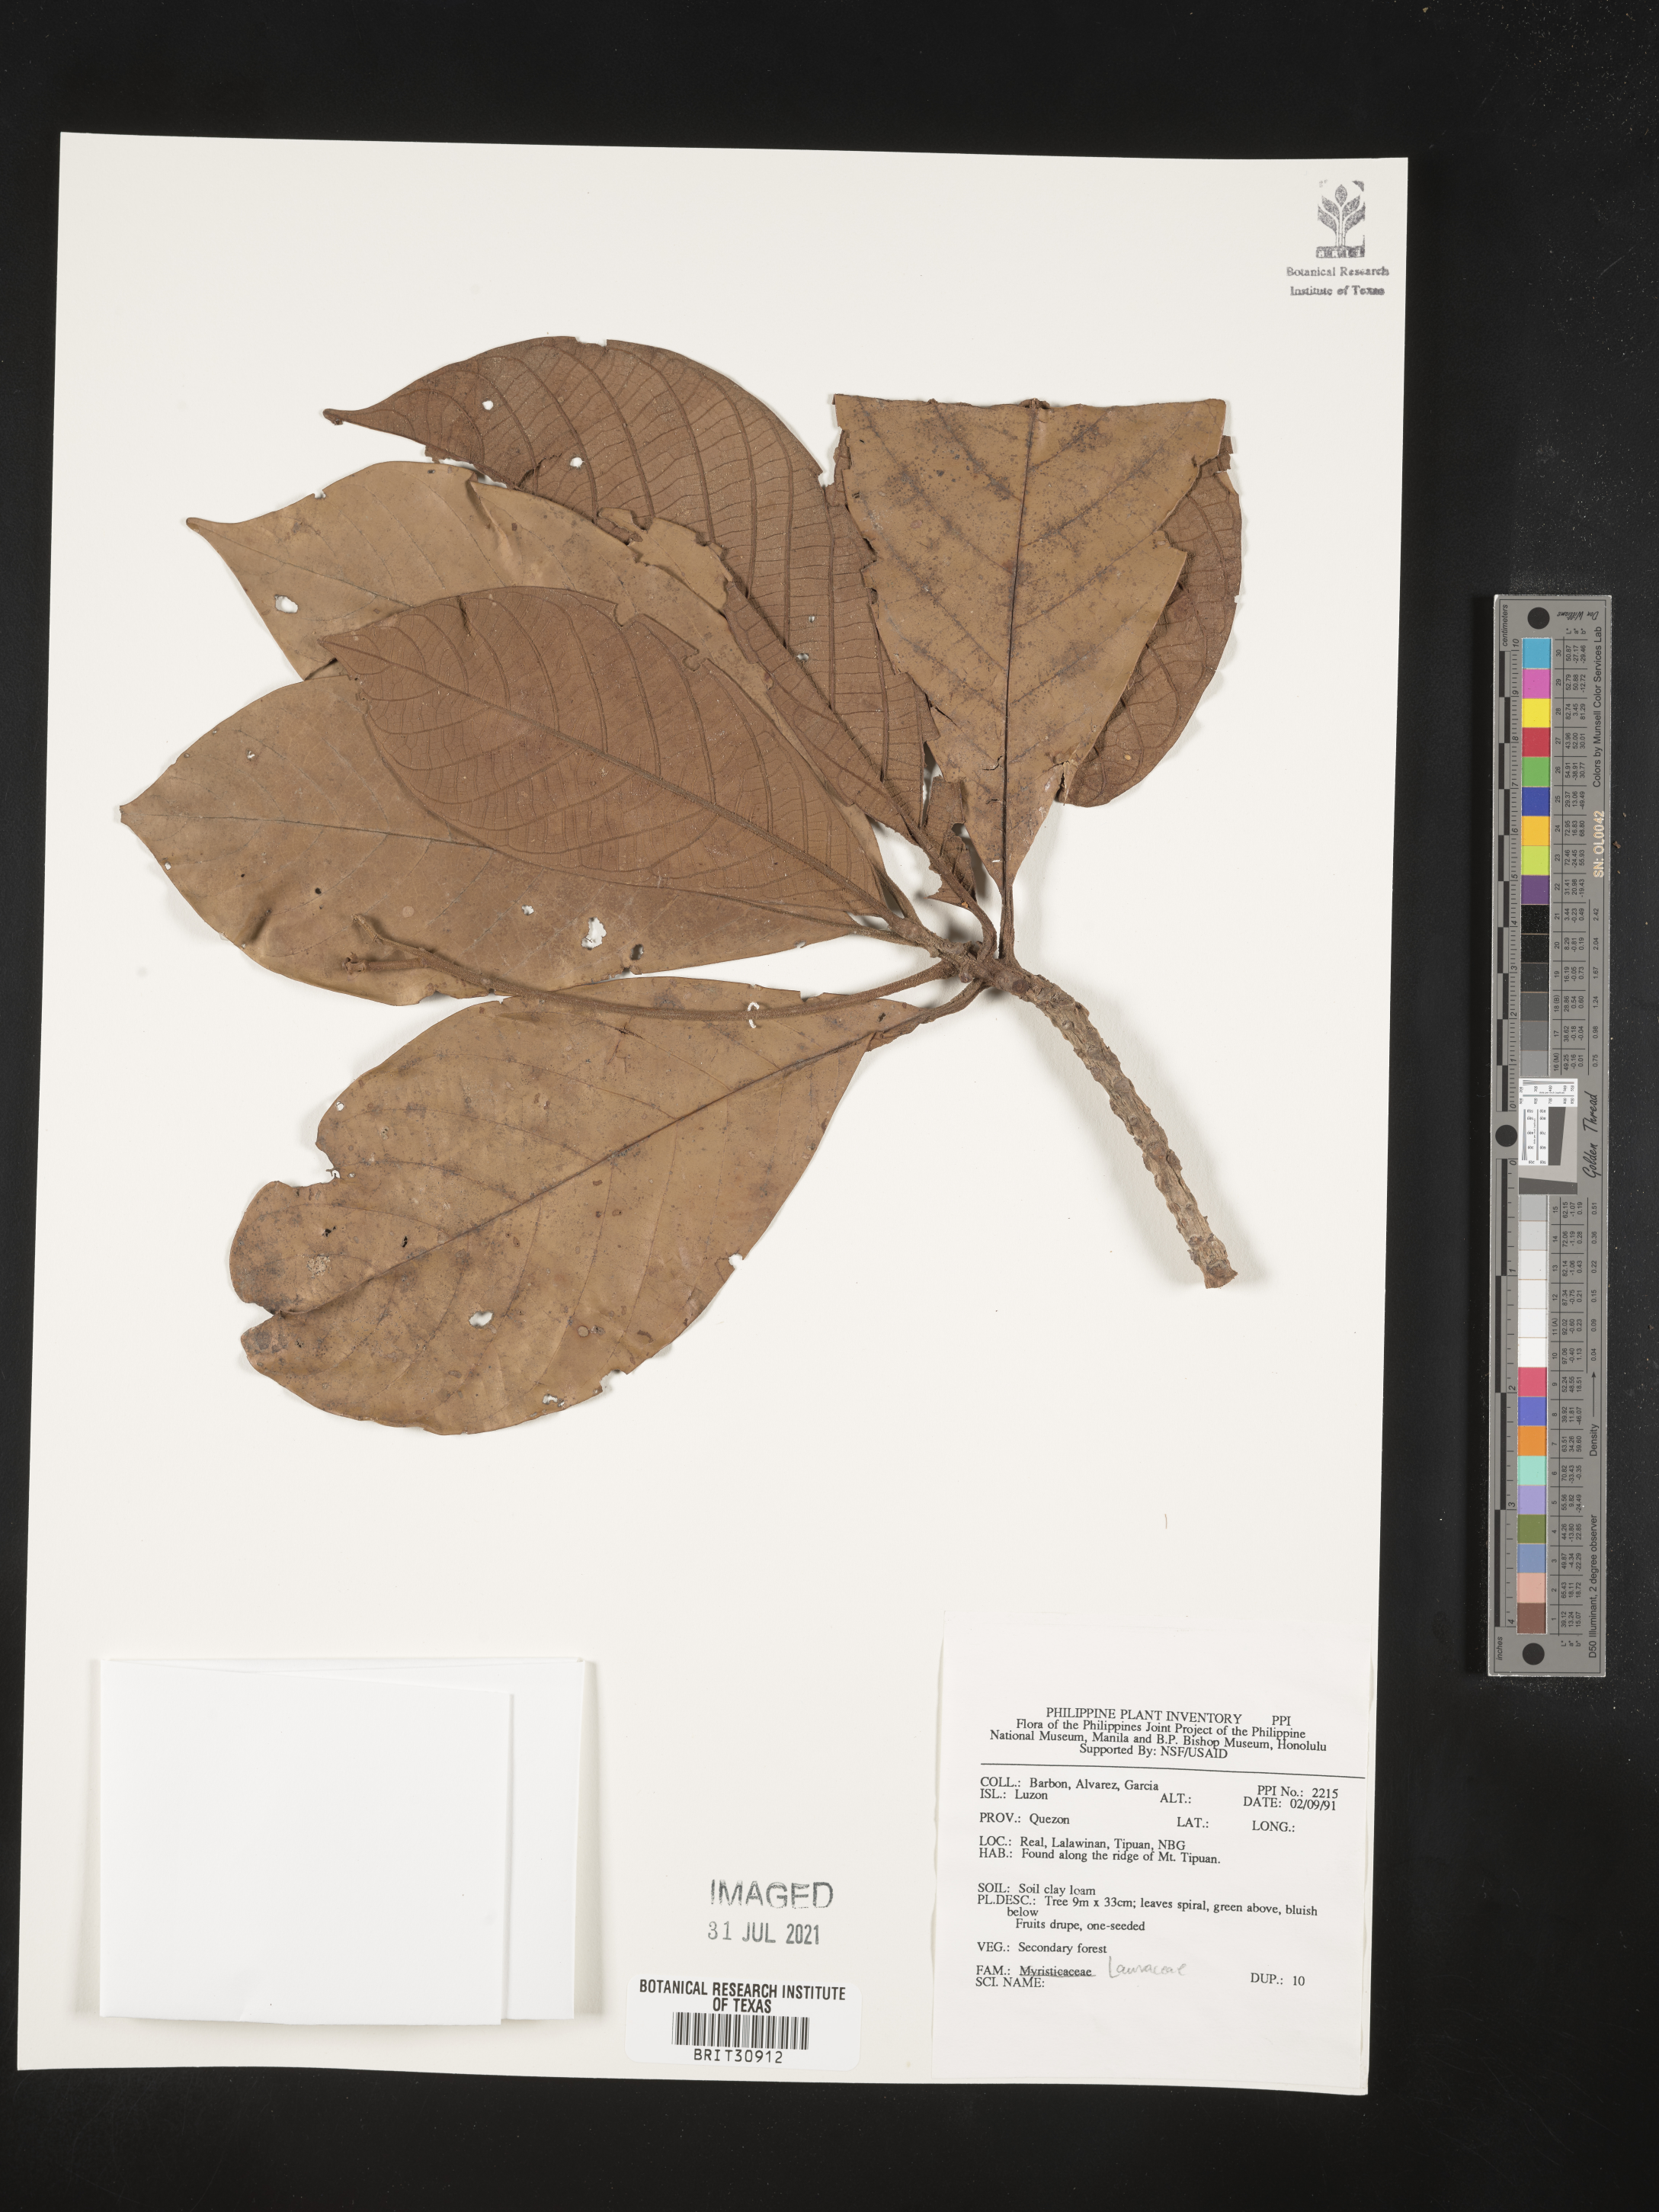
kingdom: Plantae
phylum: Tracheophyta
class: Magnoliopsida
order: Laurales
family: Lauraceae
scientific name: Lauraceae
